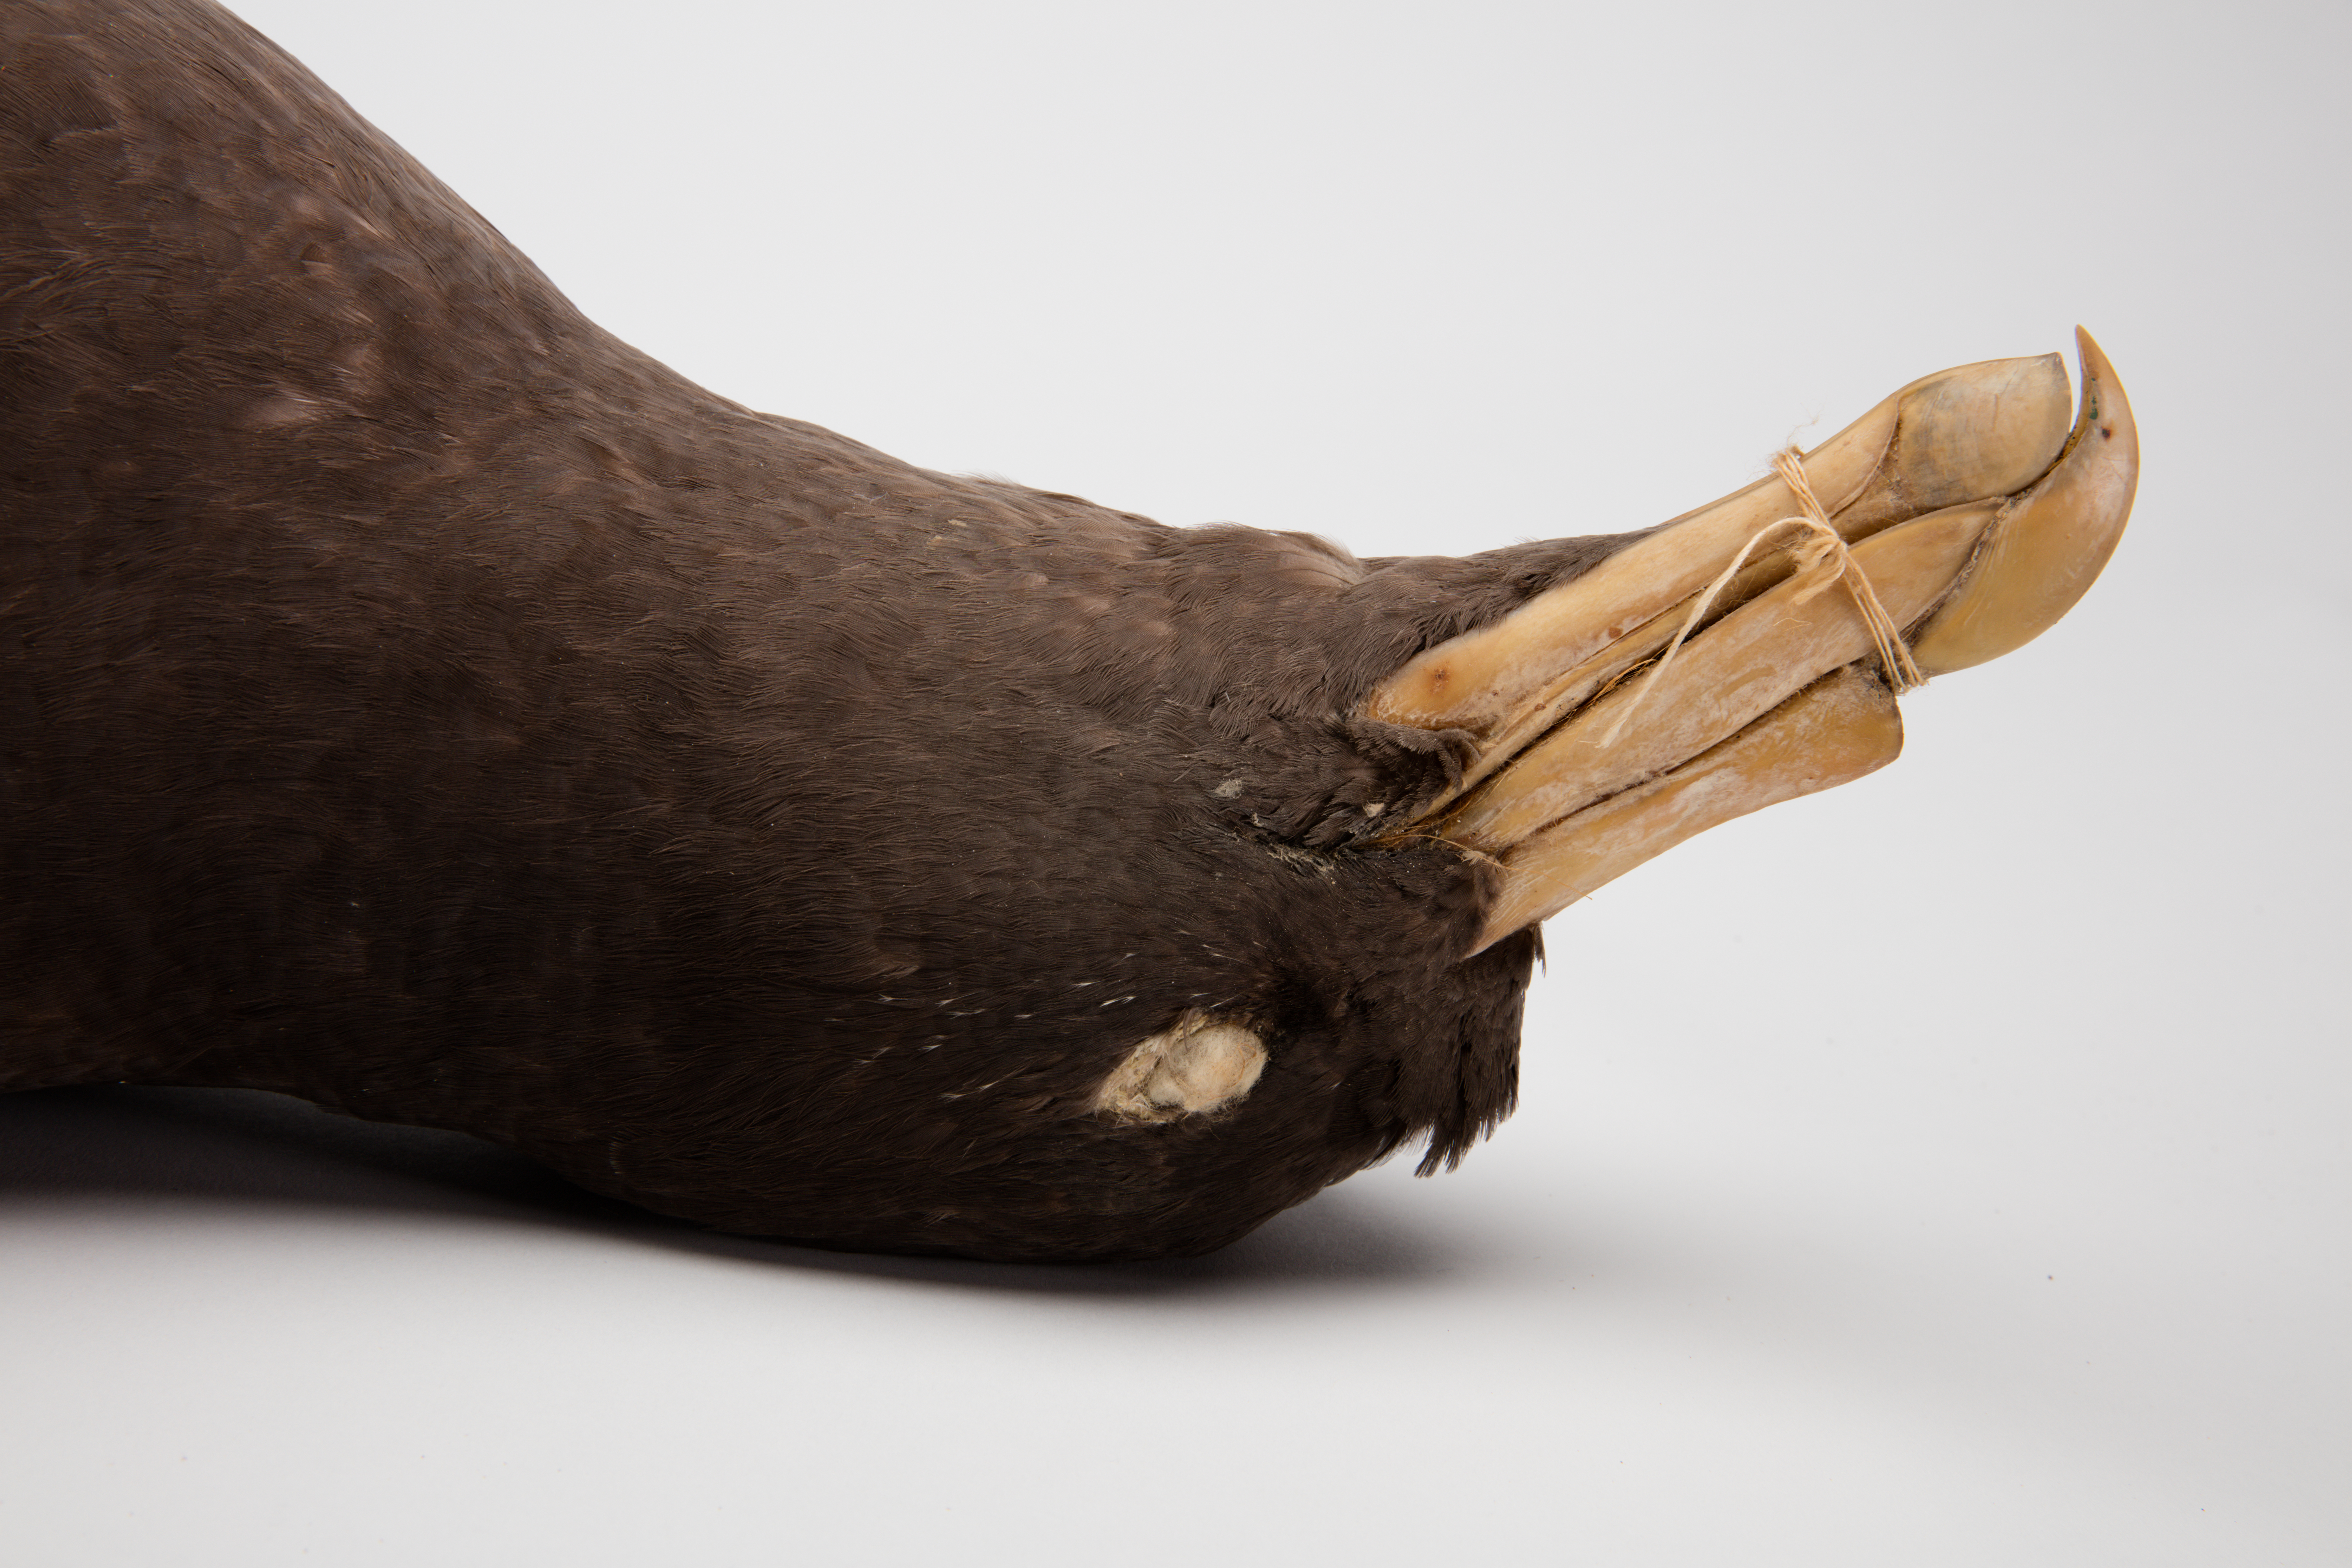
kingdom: Animalia
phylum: Chordata
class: Aves
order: Procellariiformes
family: Procellariidae
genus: Macronectes
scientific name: Macronectes giganteus
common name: Southern giant petrel
